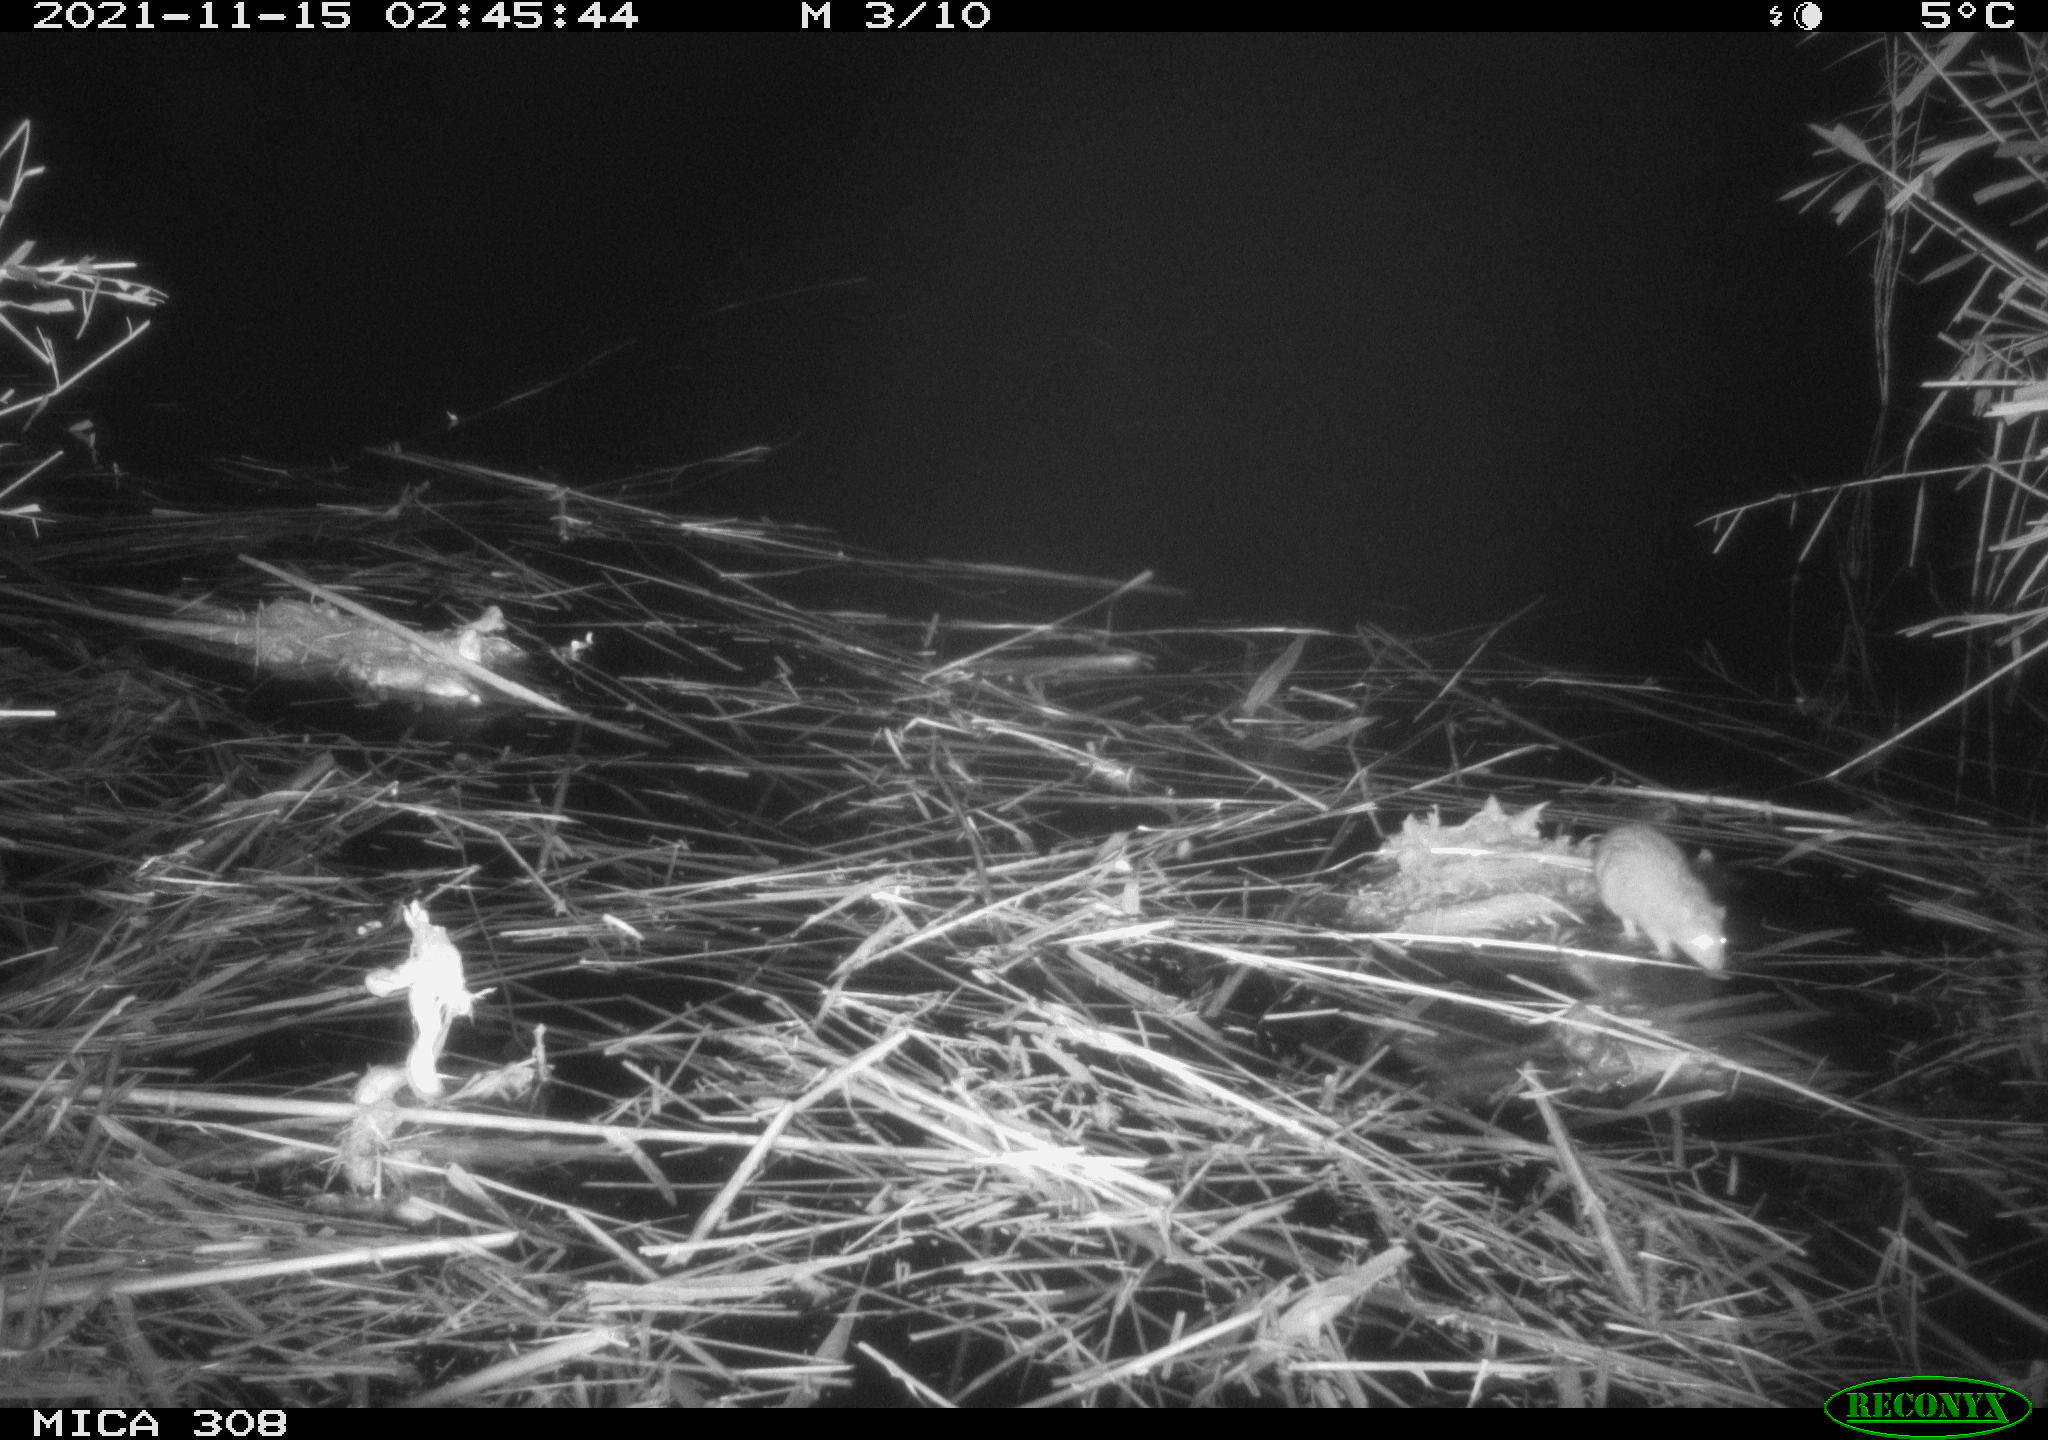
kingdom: Animalia
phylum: Chordata
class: Mammalia
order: Rodentia
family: Muridae
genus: Rattus
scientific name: Rattus norvegicus
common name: Brown rat
